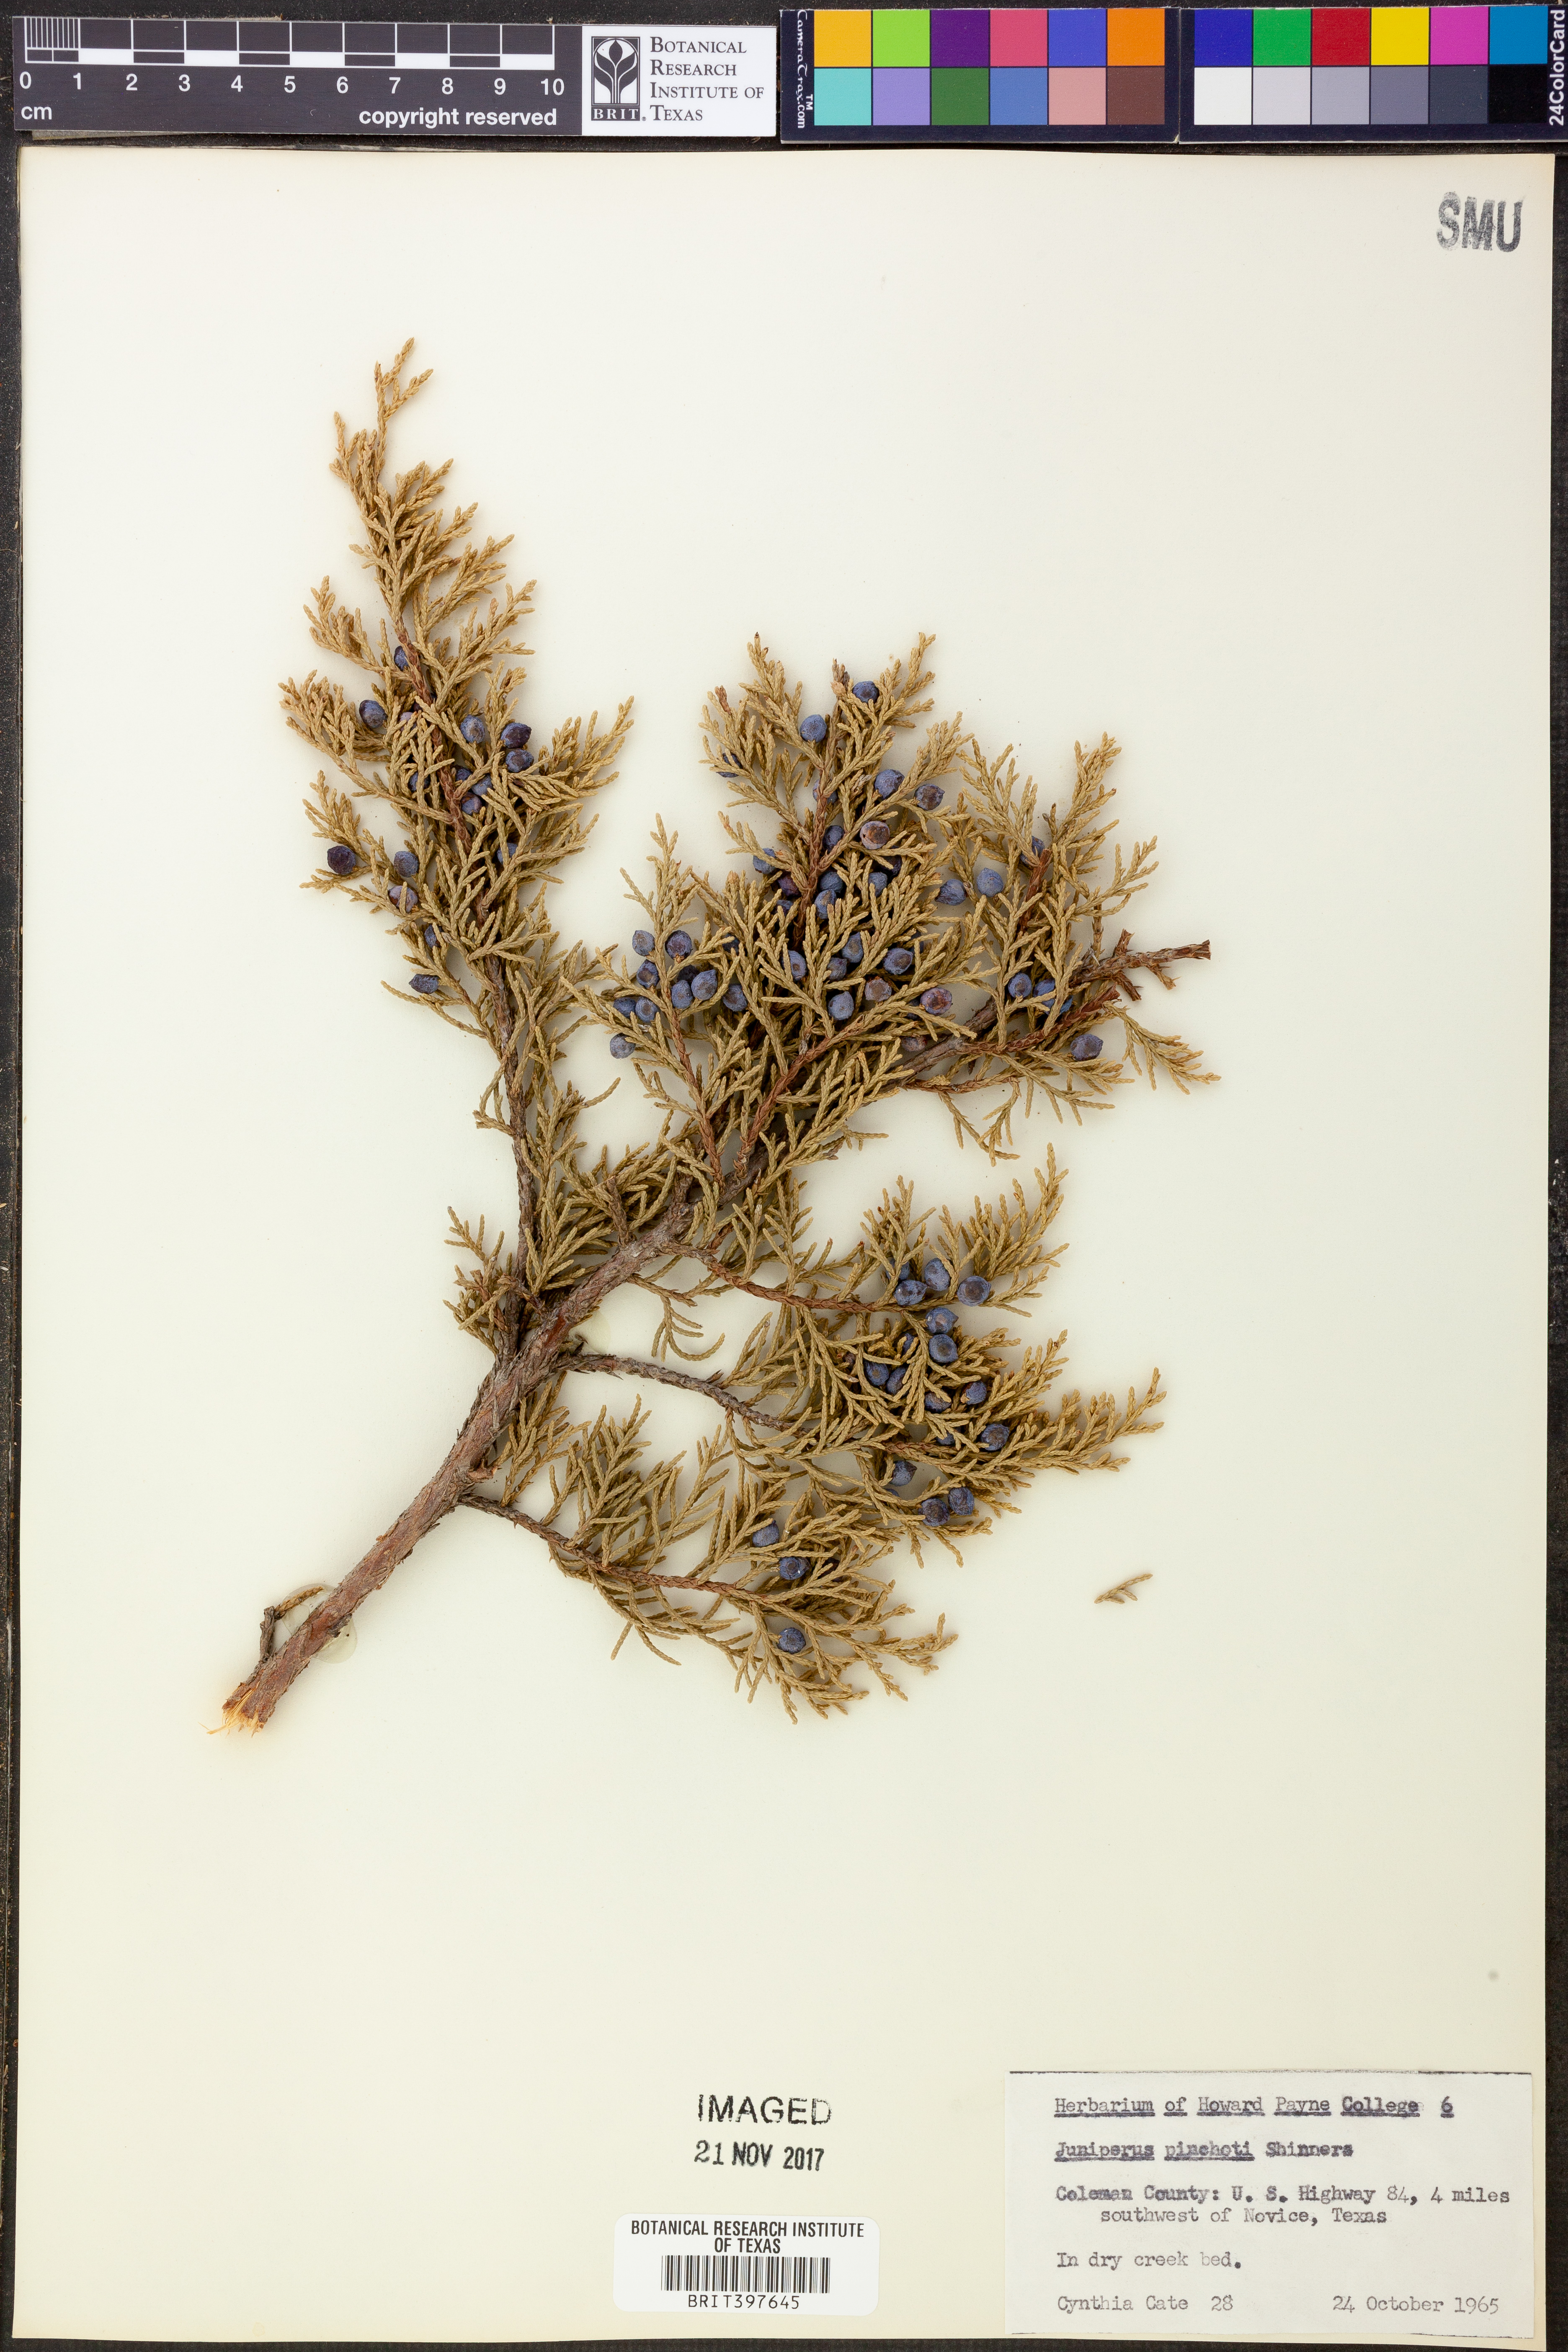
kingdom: Plantae
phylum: Tracheophyta
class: Pinopsida
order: Pinales
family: Cupressaceae
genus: Juniperus
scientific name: Juniperus pinchotii
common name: Pinchot juniper
